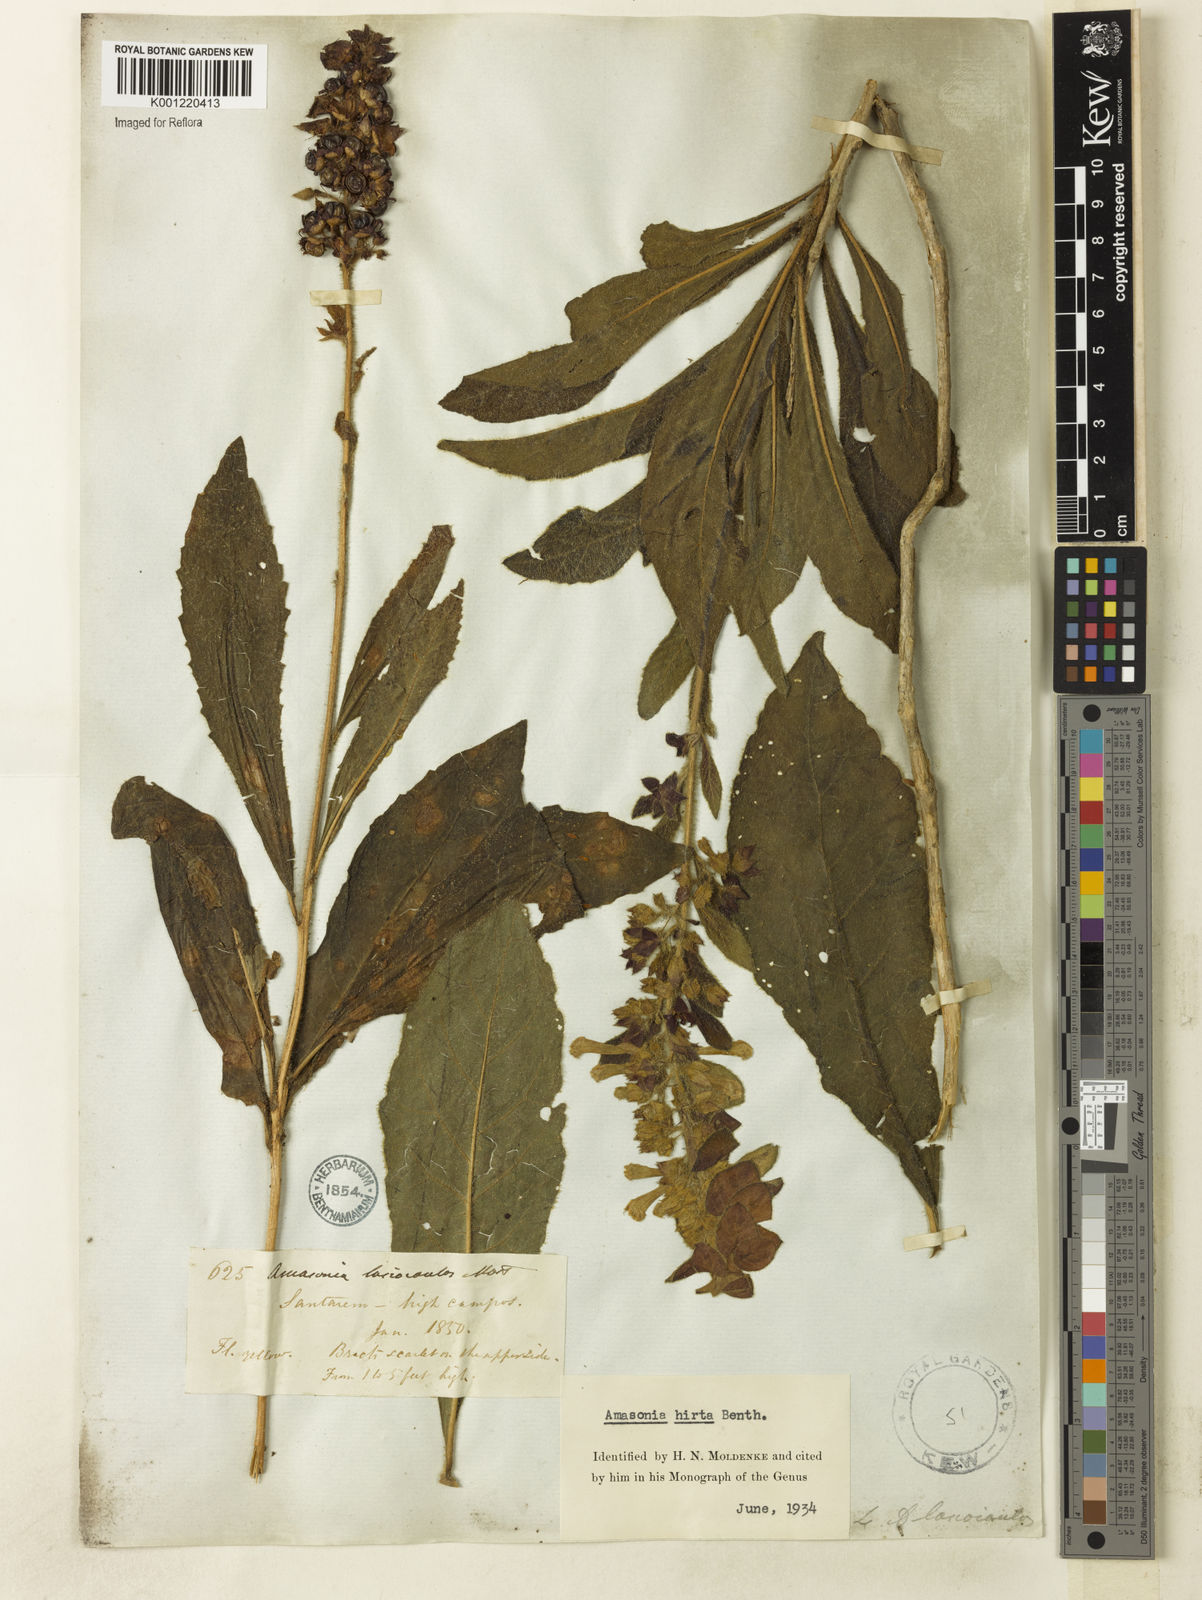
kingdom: Plantae
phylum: Tracheophyta
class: Magnoliopsida
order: Lamiales
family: Lamiaceae
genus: Amasonia
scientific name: Amasonia hirta
